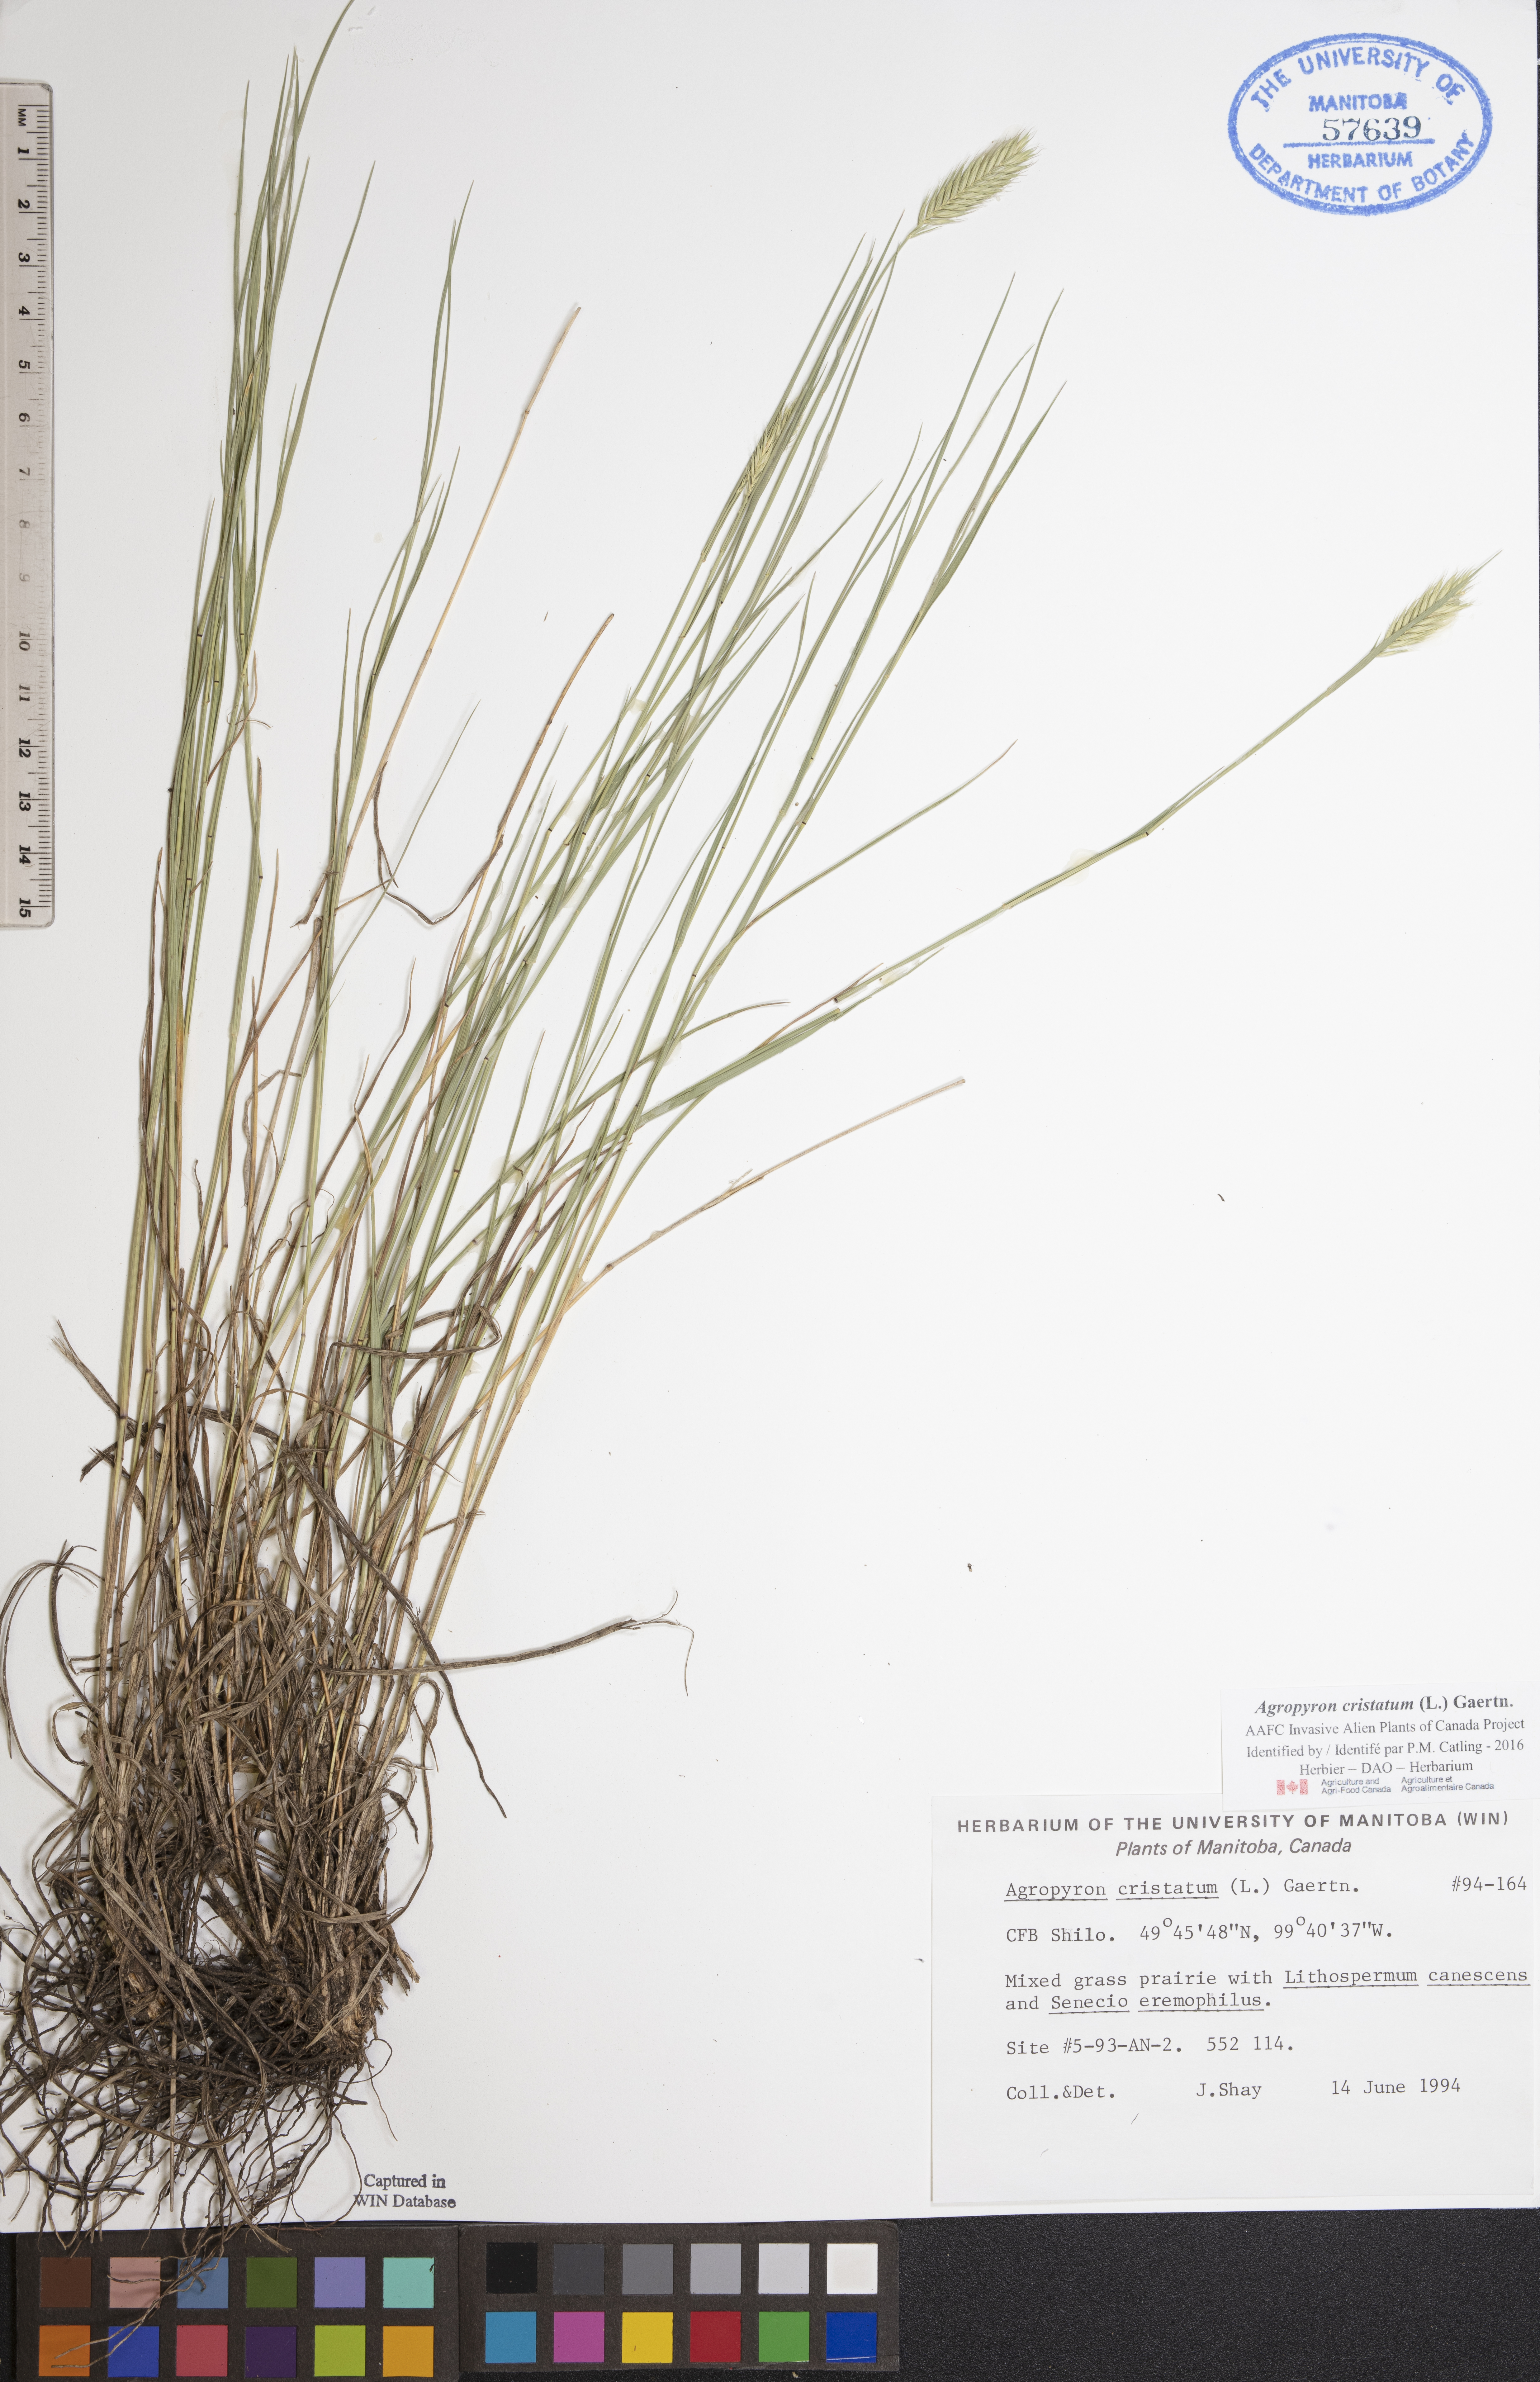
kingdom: Plantae
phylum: Tracheophyta
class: Liliopsida
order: Poales
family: Poaceae
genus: Agropyron
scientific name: Agropyron cristatum
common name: Crested wheatgrass
